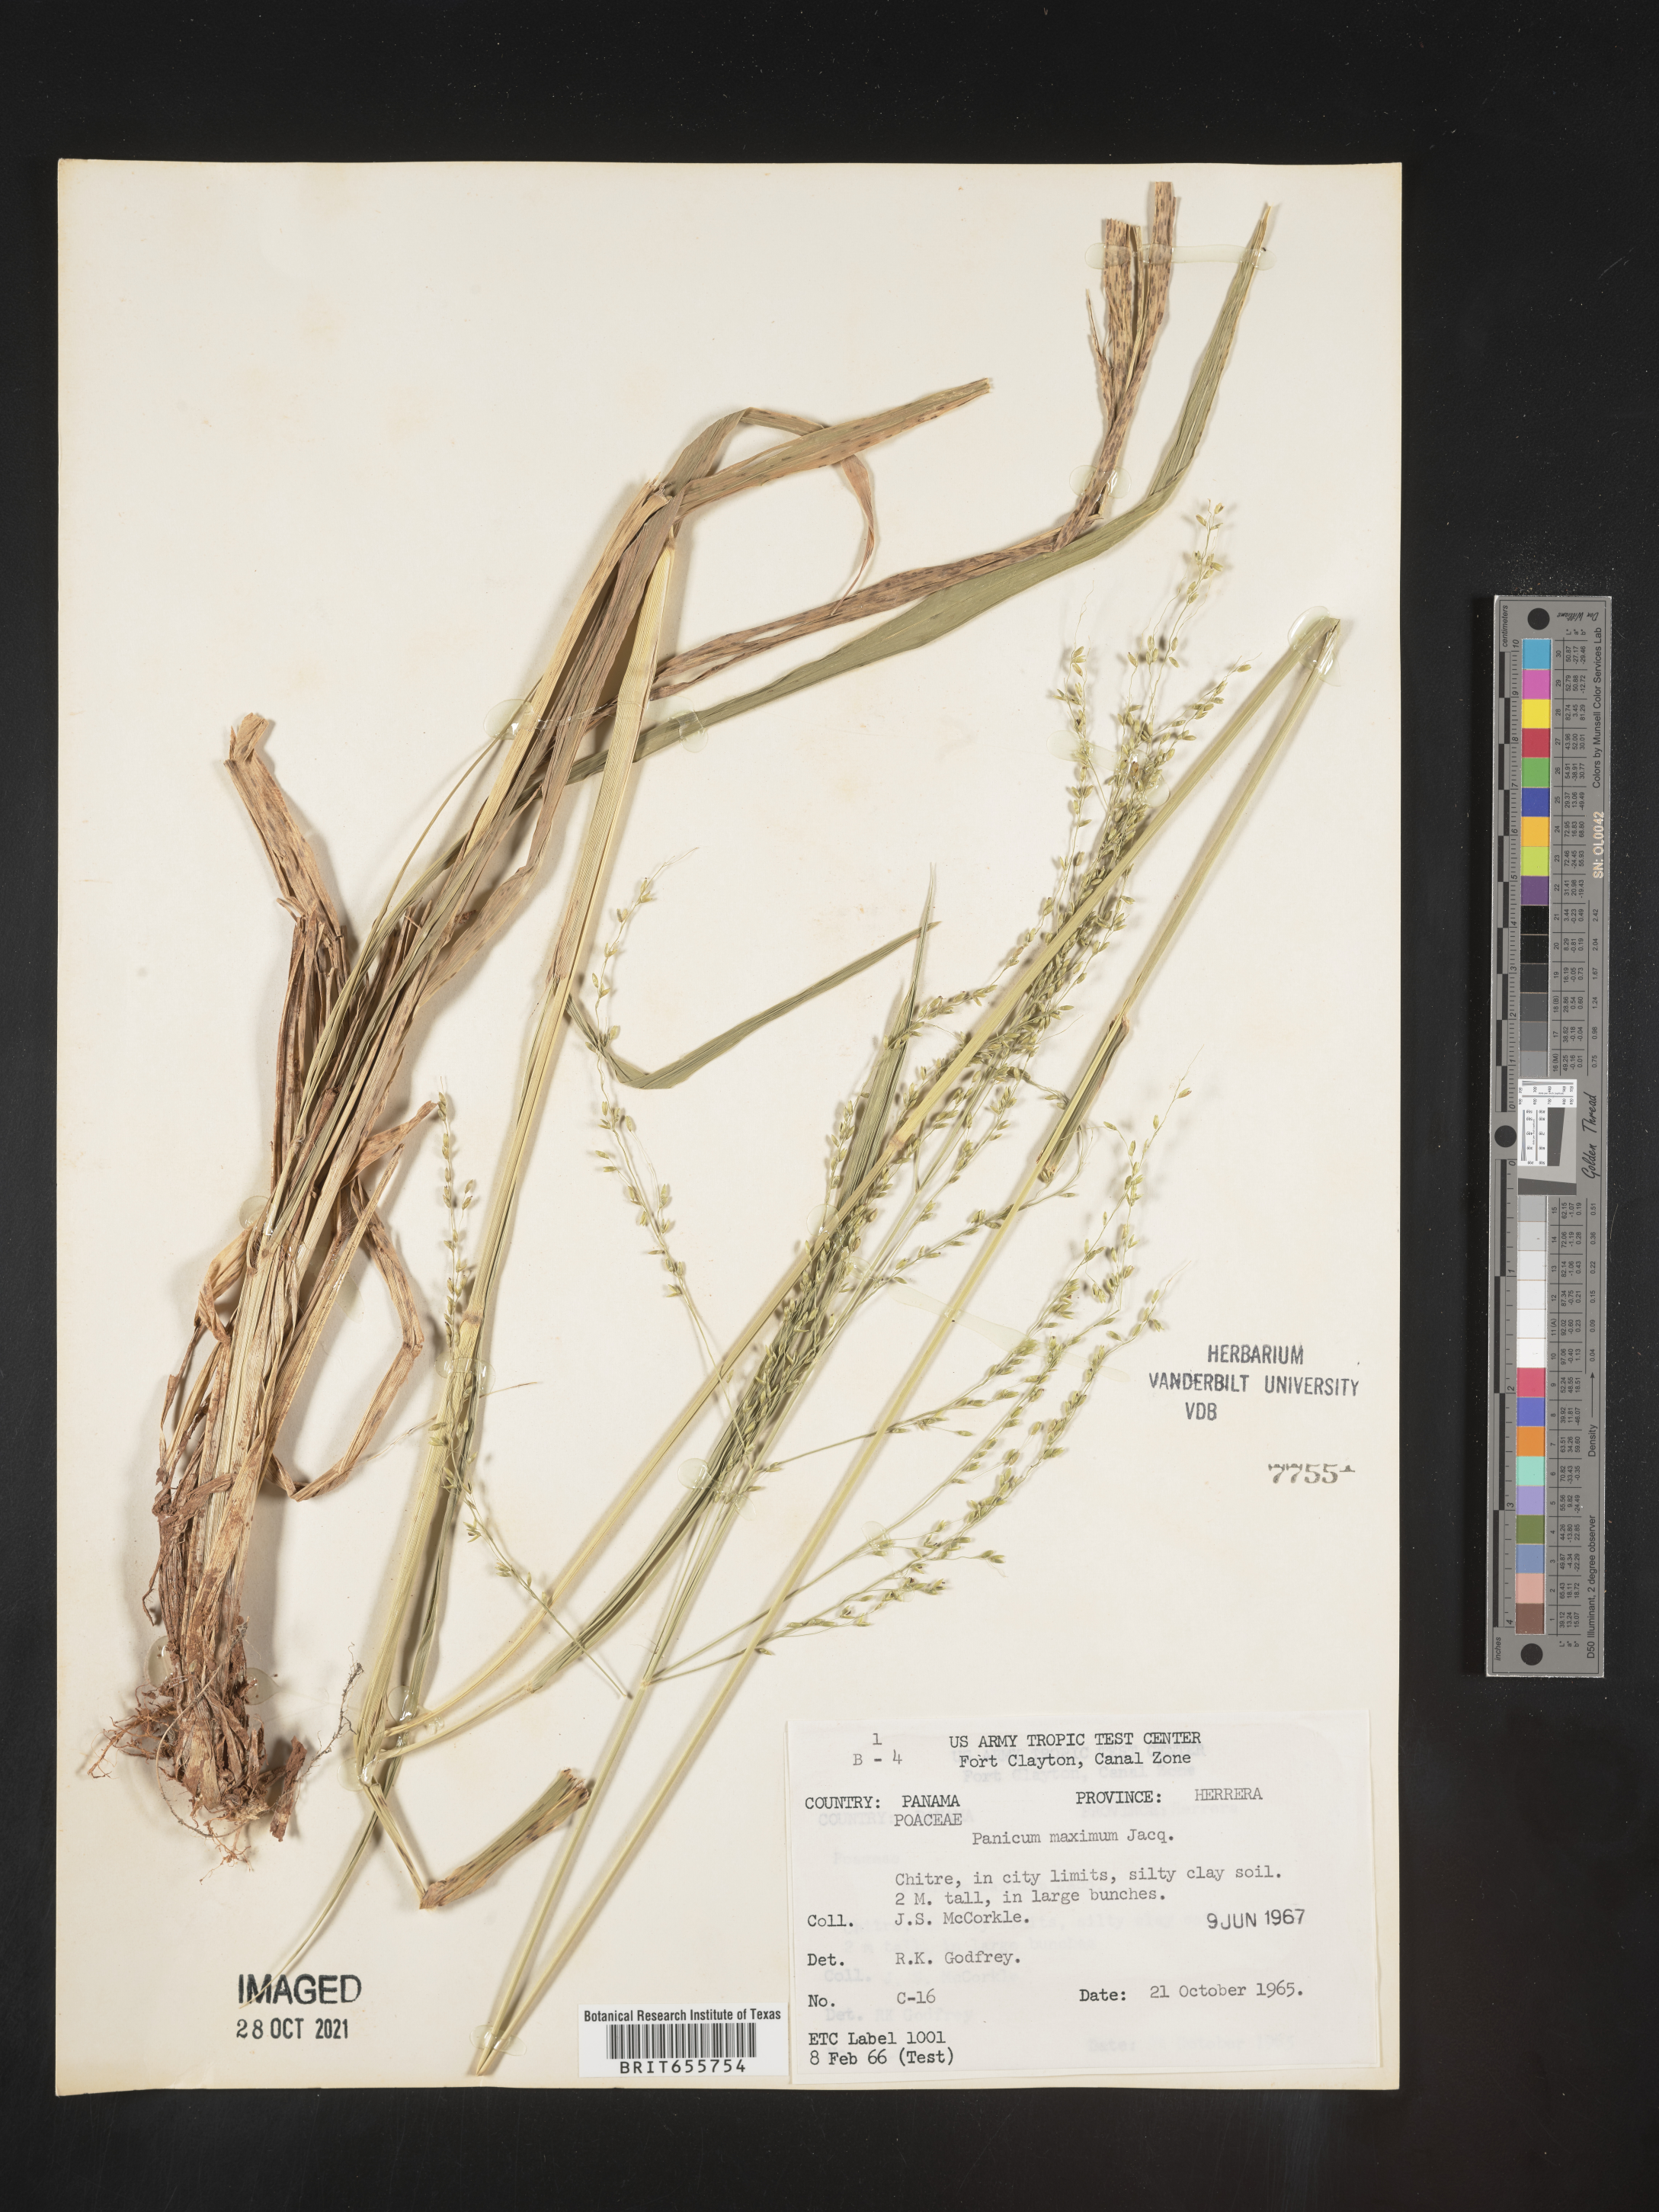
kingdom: Plantae
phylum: Tracheophyta
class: Liliopsida
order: Poales
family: Poaceae
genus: Panicum
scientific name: Panicum
